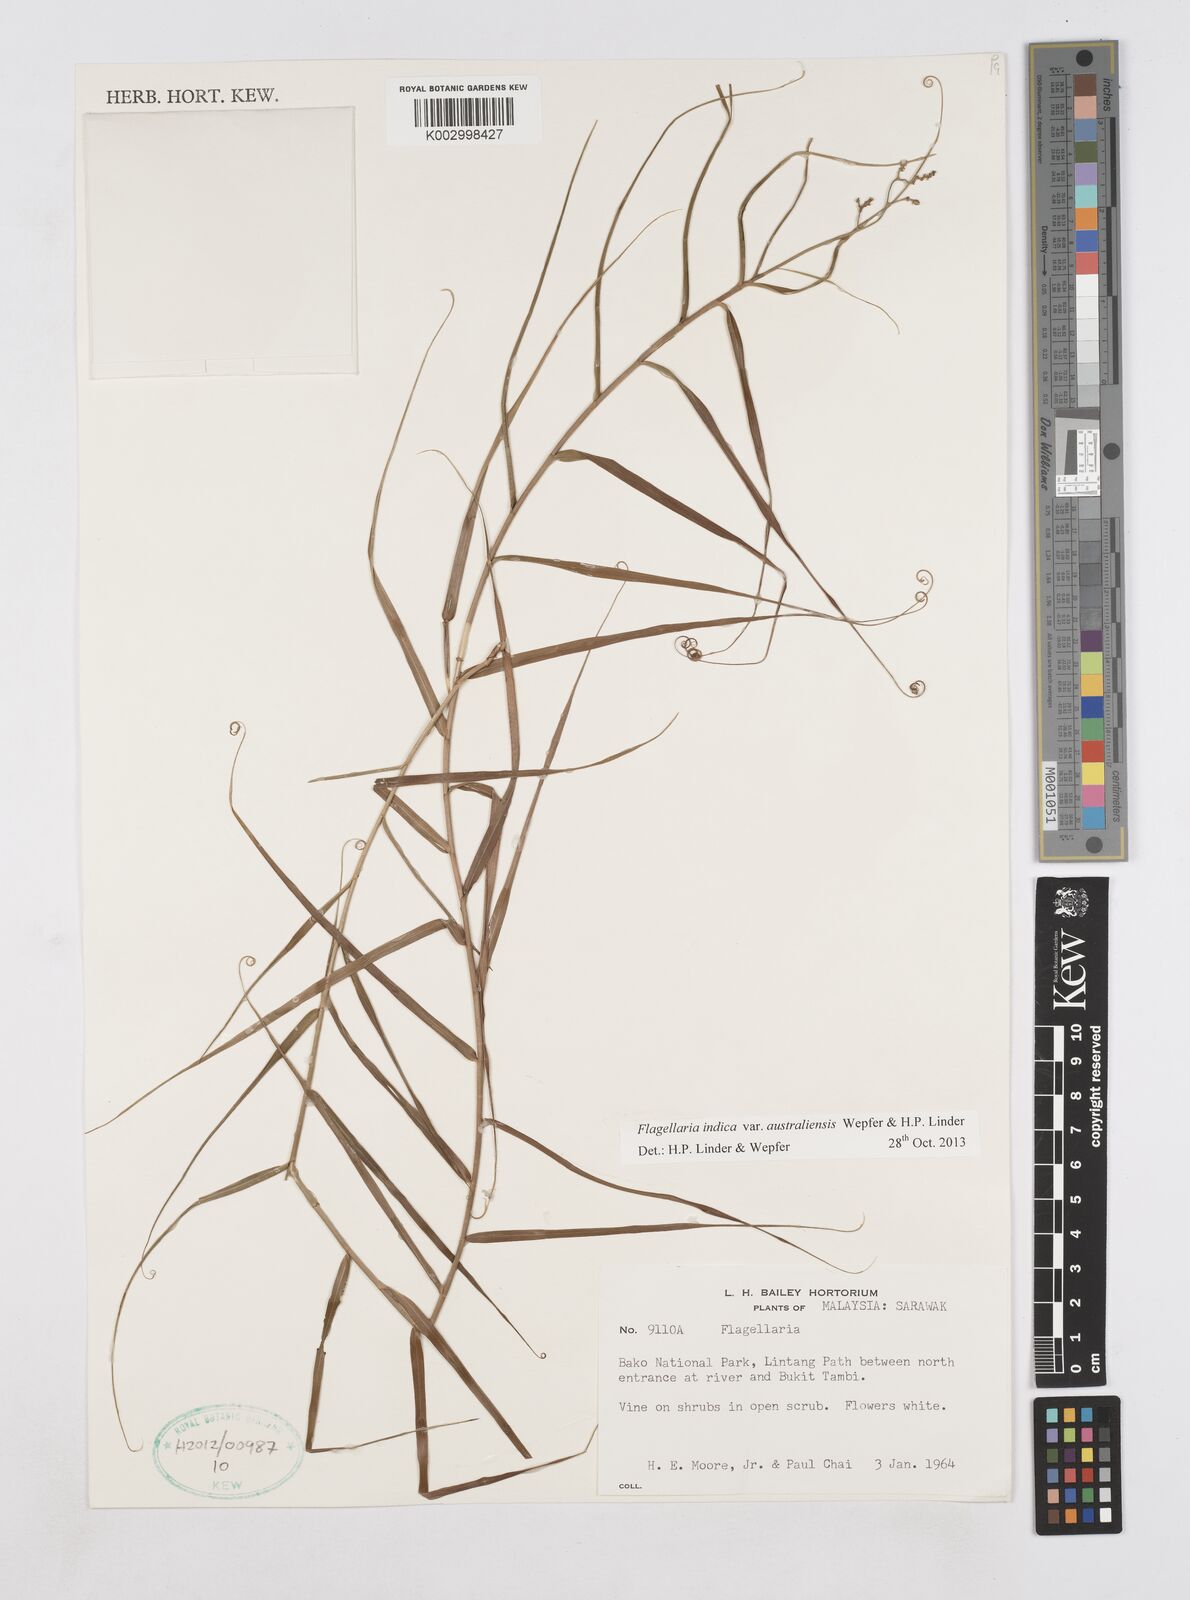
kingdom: Plantae
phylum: Tracheophyta
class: Liliopsida
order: Poales
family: Flagellariaceae
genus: Flagellaria
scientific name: Flagellaria indica
